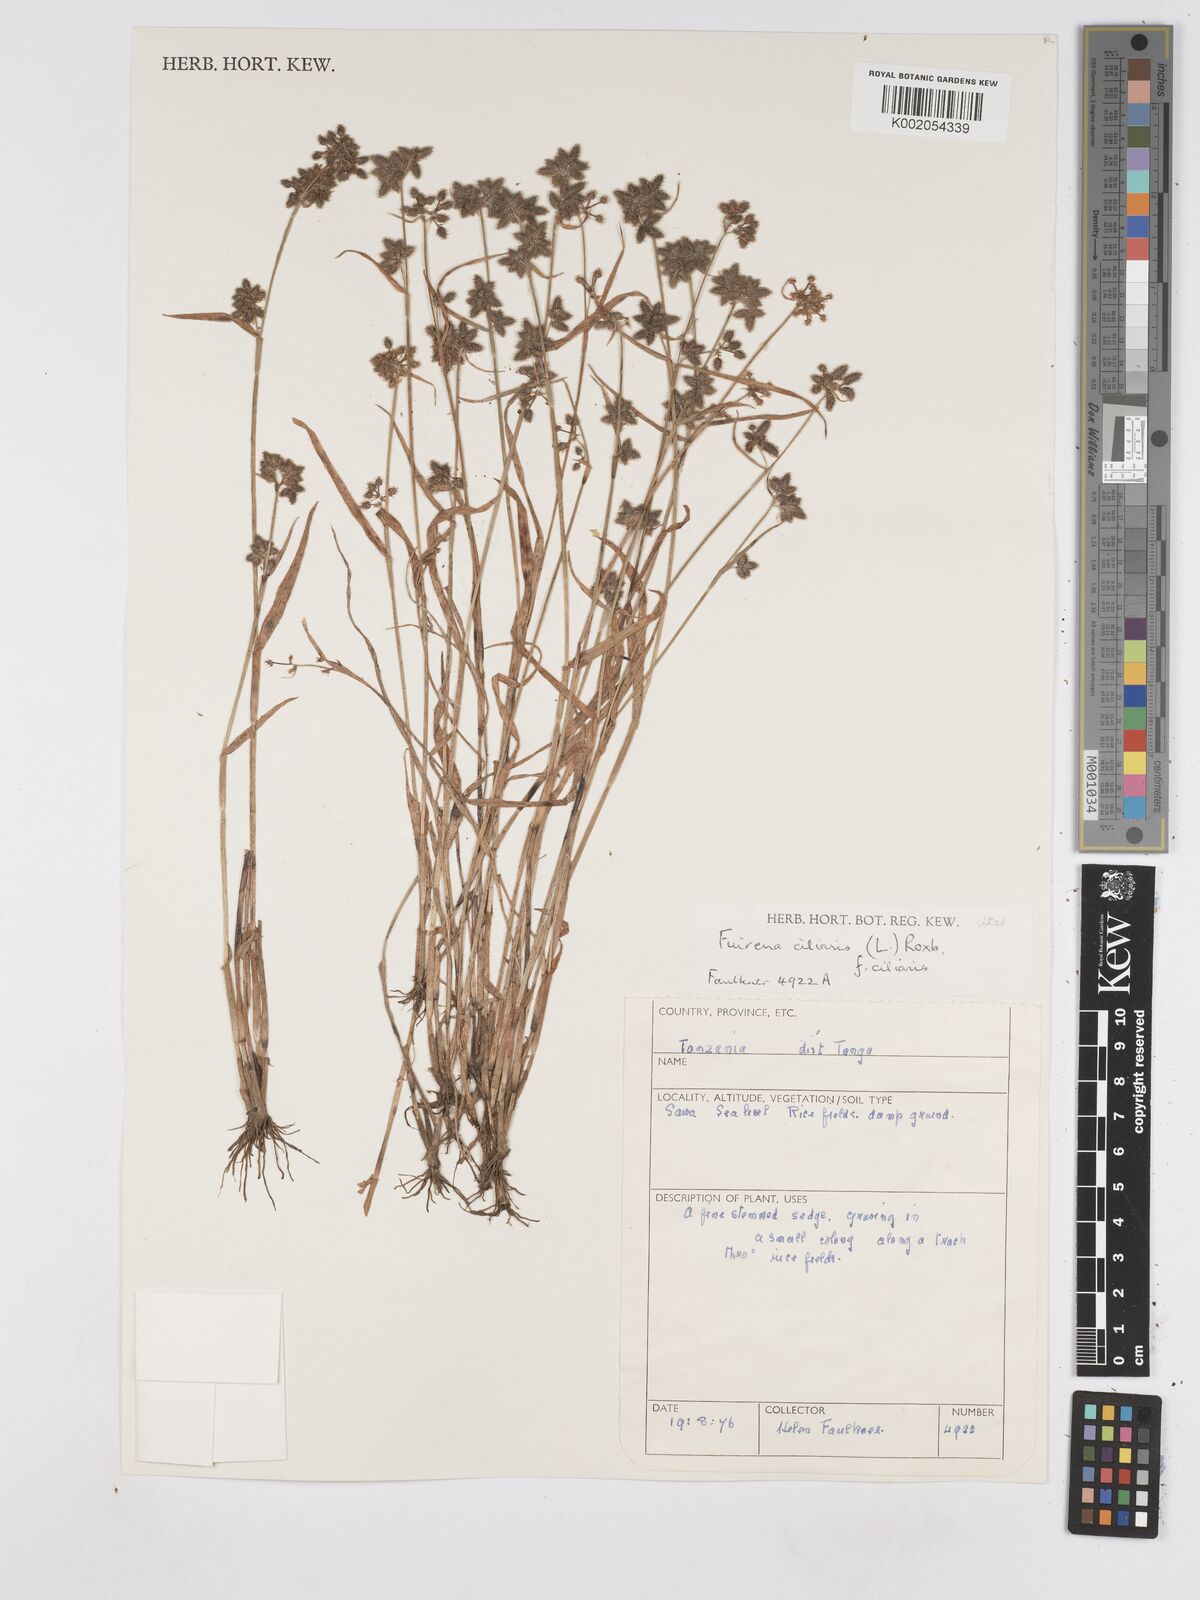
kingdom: Plantae
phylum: Tracheophyta
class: Liliopsida
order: Poales
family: Cyperaceae
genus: Fuirena
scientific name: Fuirena ciliaris
